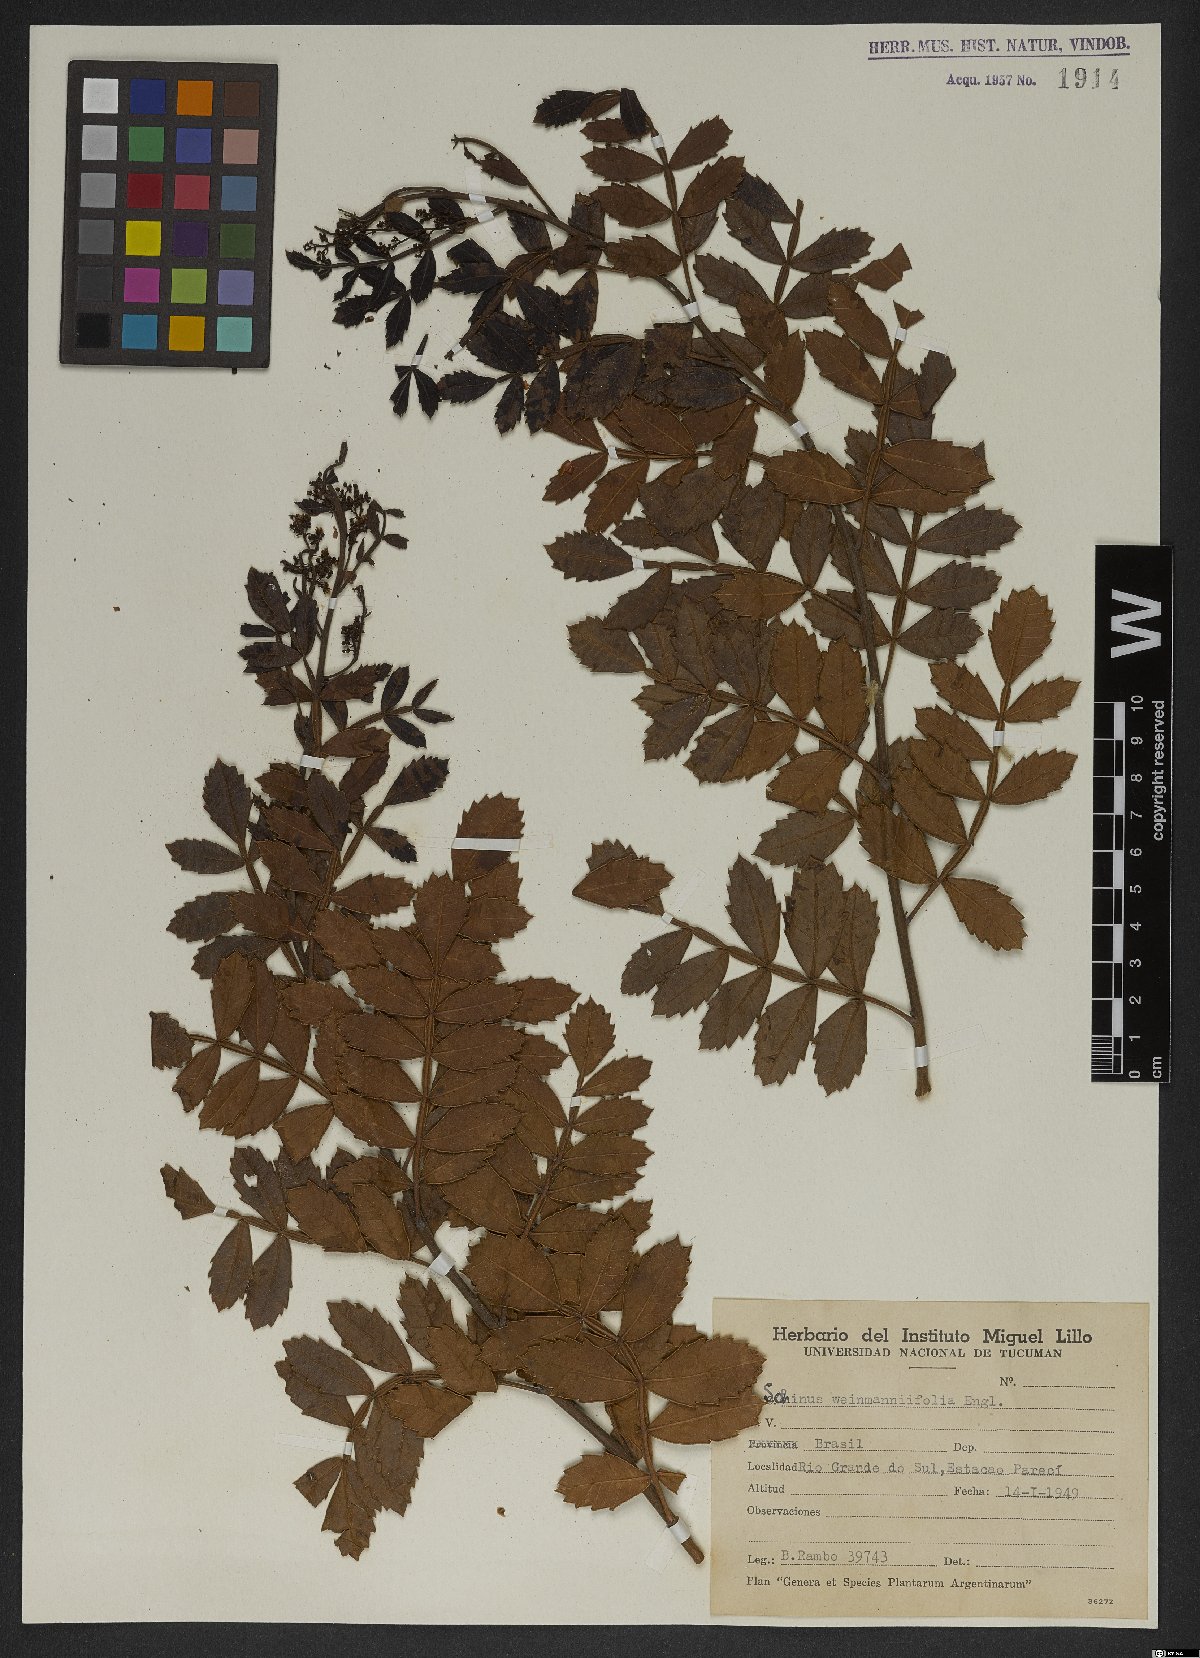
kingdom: Plantae
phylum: Tracheophyta
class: Magnoliopsida
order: Sapindales
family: Anacardiaceae
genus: Schinus
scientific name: Schinus weinmanniifolia
